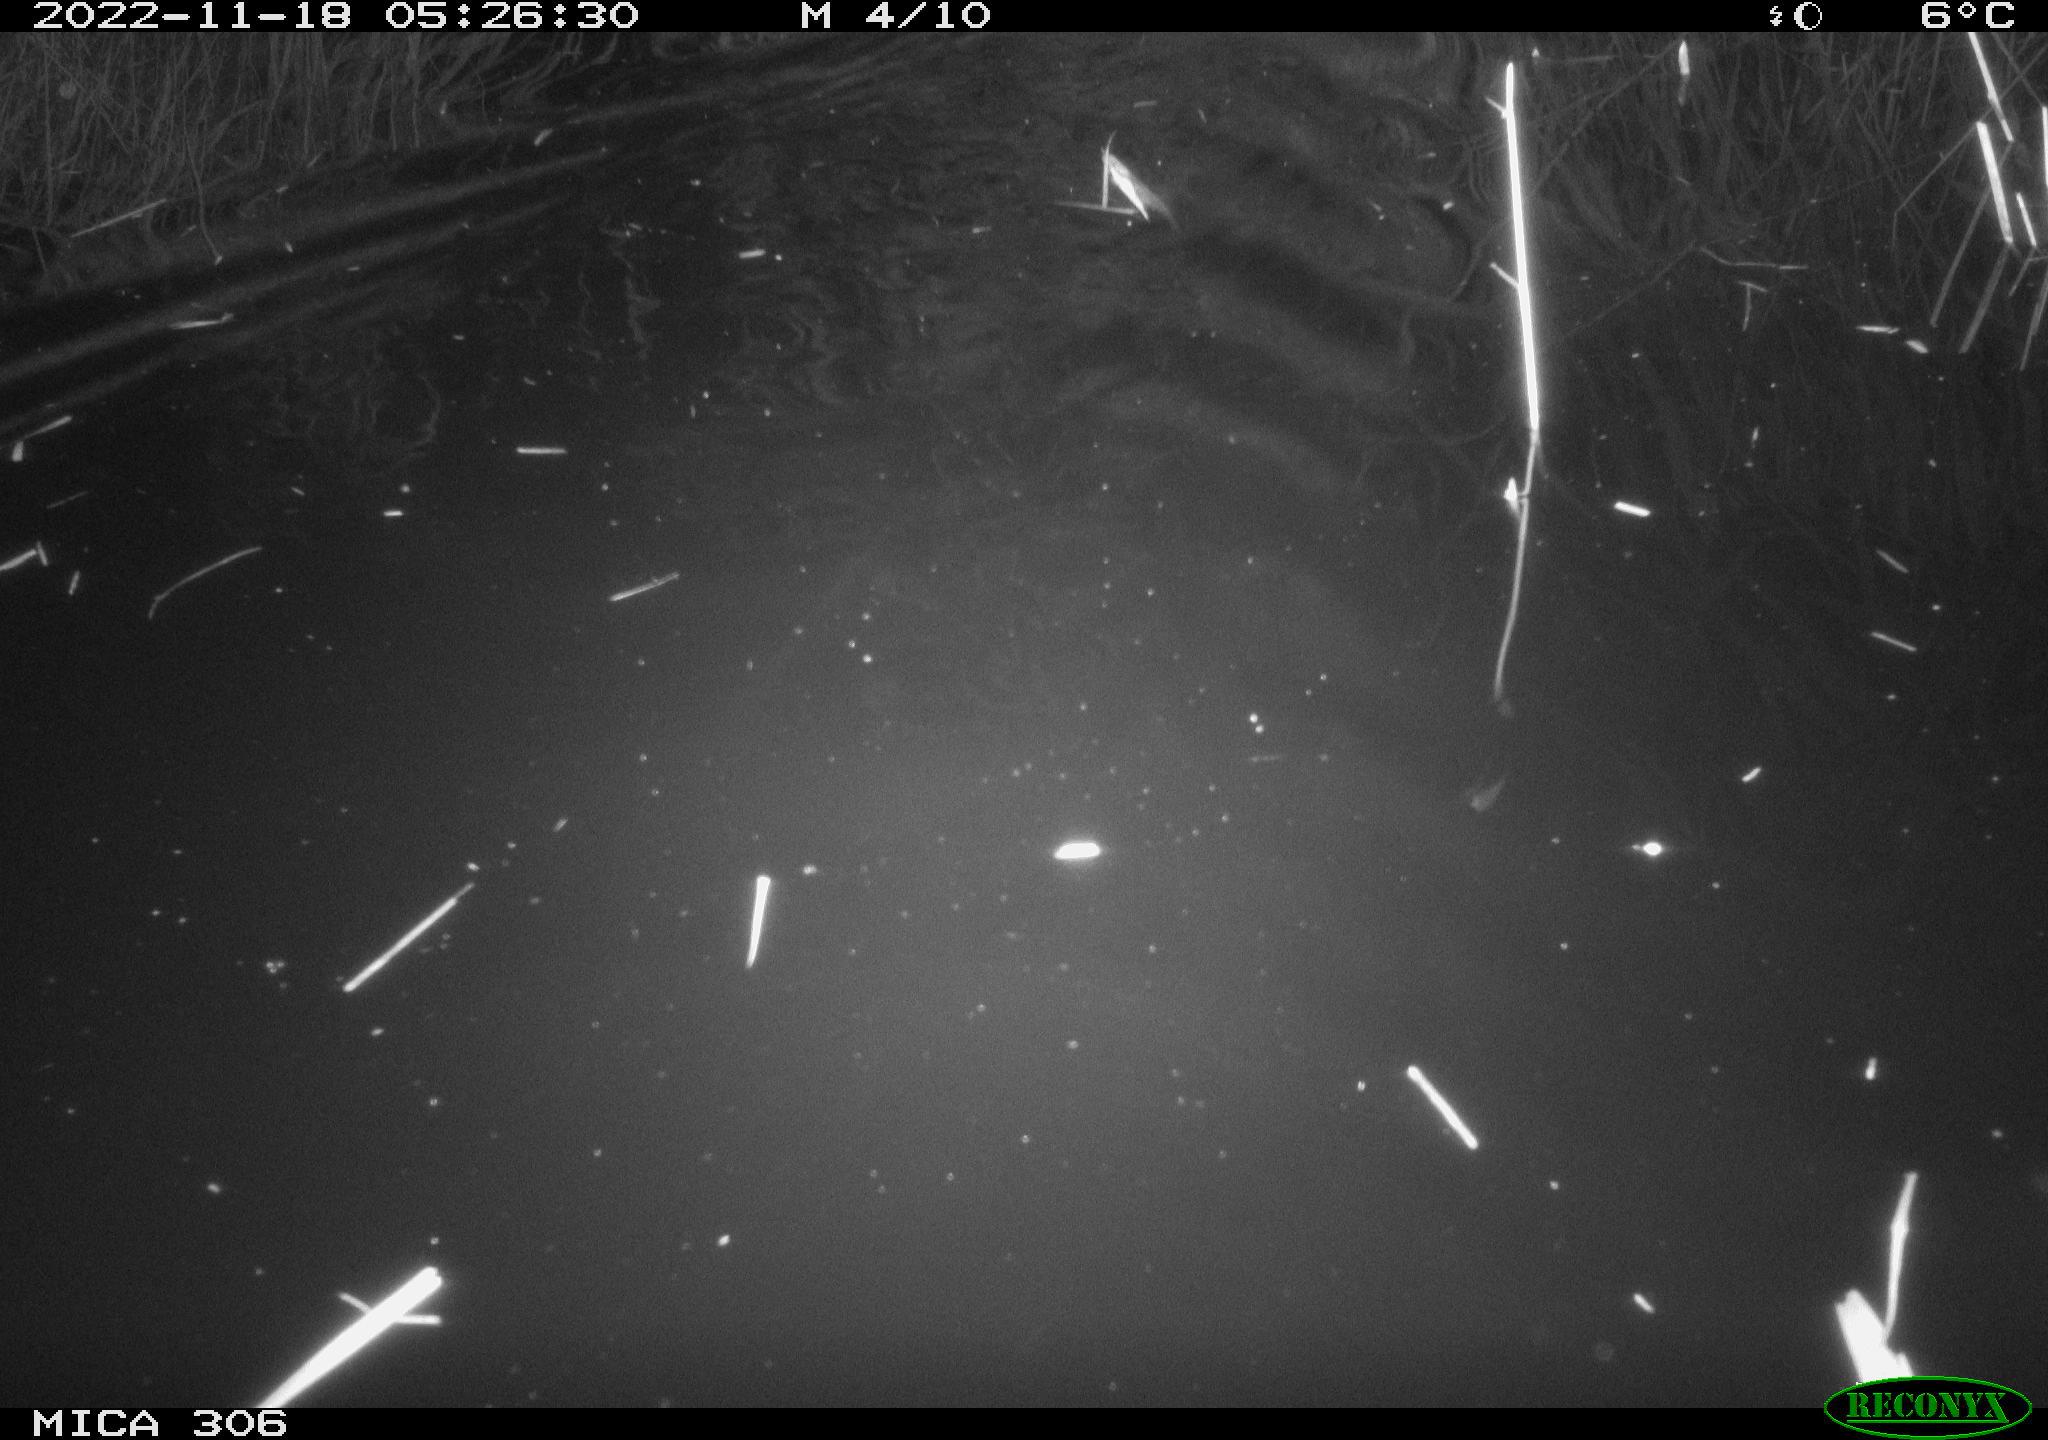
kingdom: Animalia
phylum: Chordata
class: Mammalia
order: Rodentia
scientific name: Rodentia
